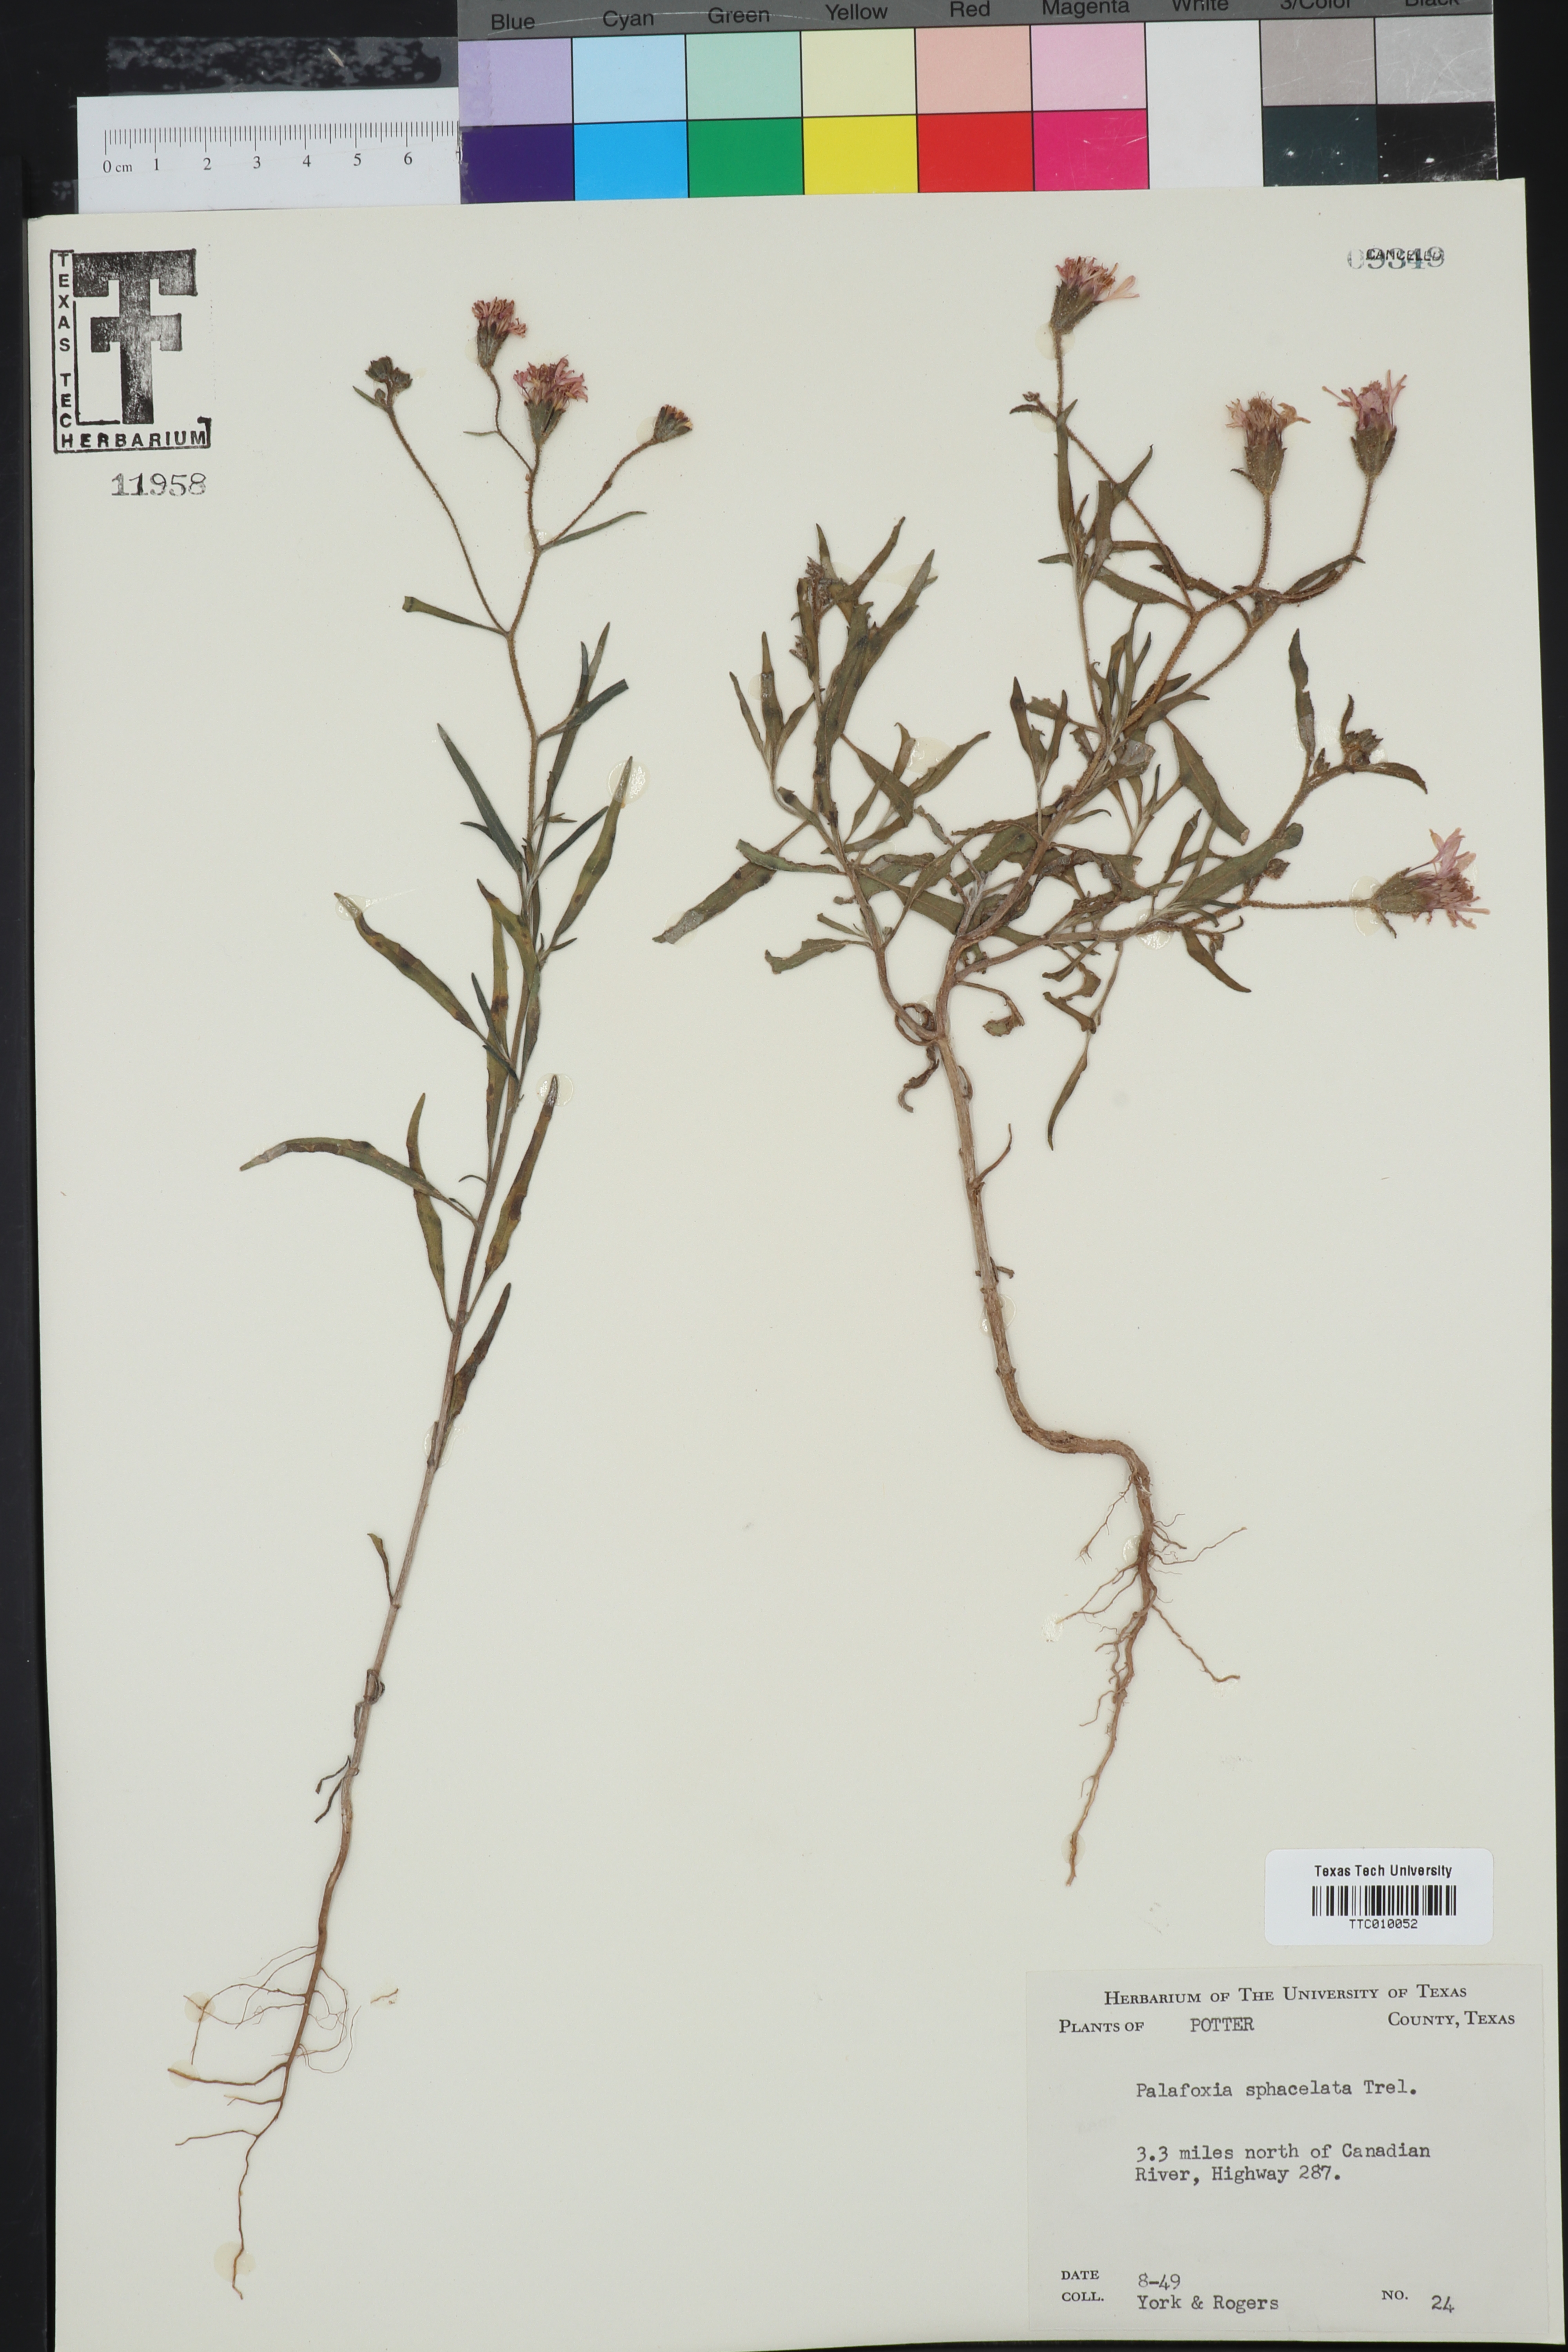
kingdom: Plantae
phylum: Tracheophyta
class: Magnoliopsida
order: Asterales
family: Asteraceae
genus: Palafoxia
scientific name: Palafoxia sphacelata
